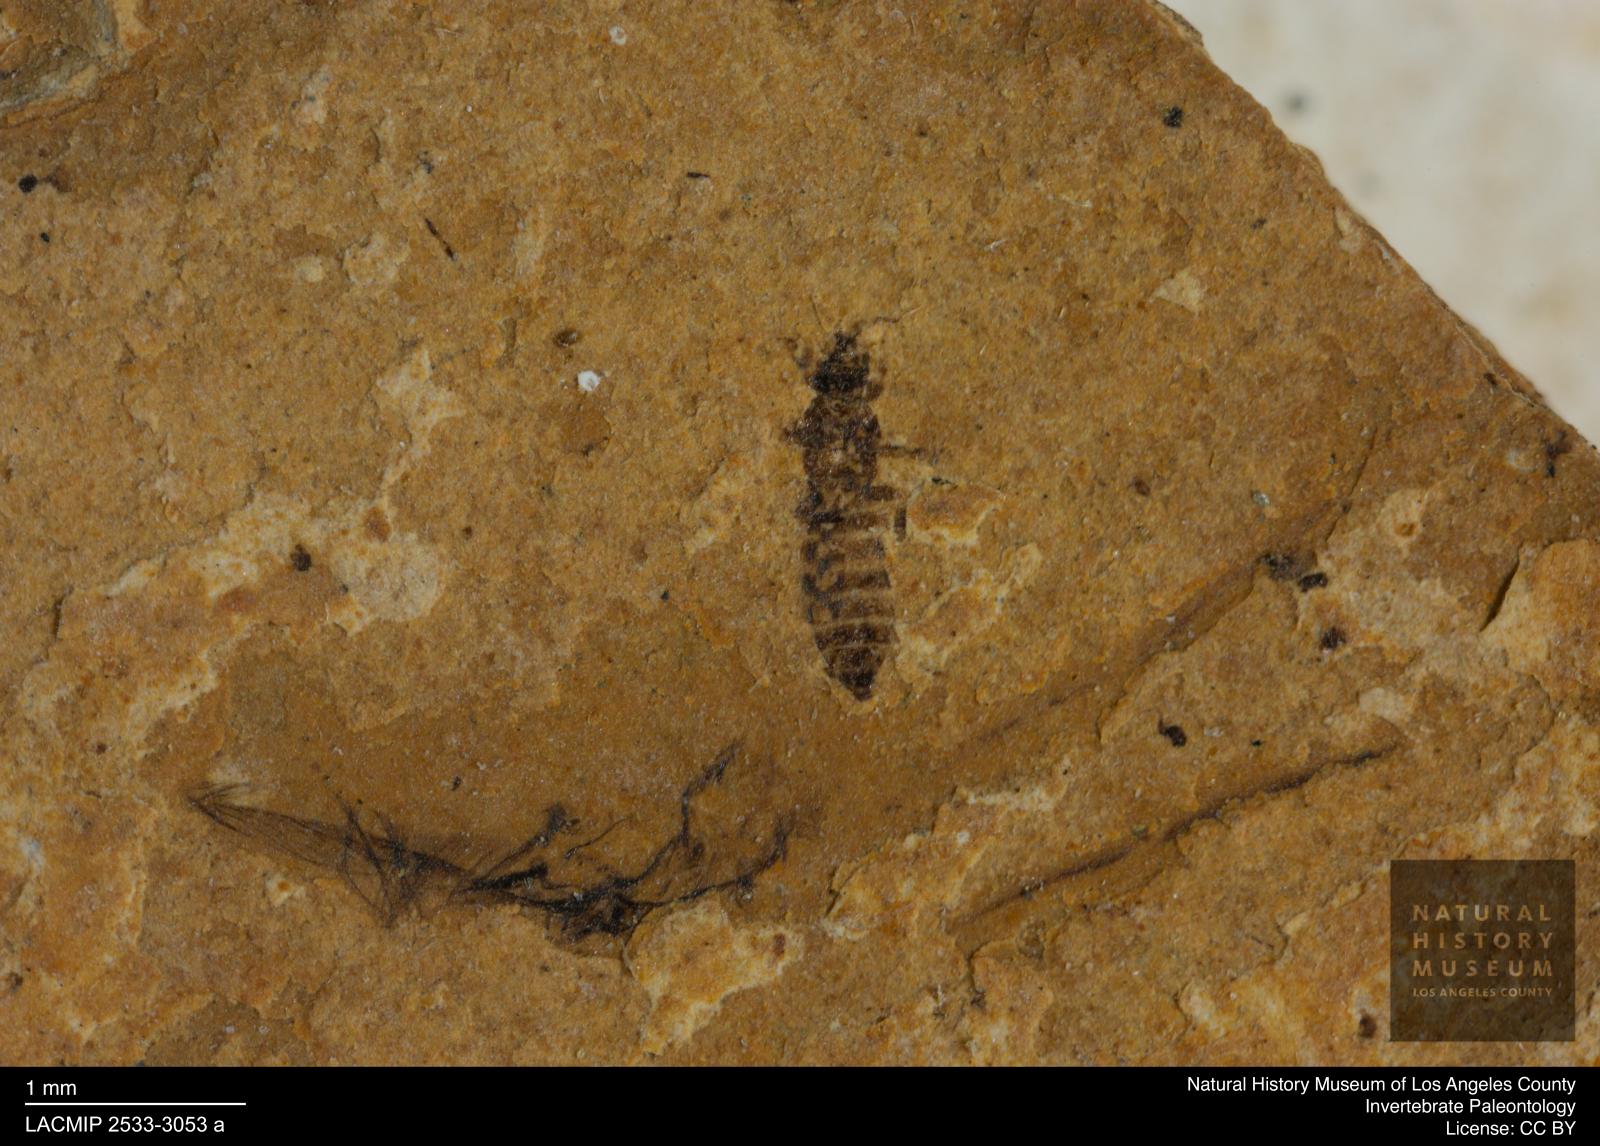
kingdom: Animalia
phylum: Arthropoda
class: Insecta
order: Thysanoptera
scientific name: Thysanoptera
